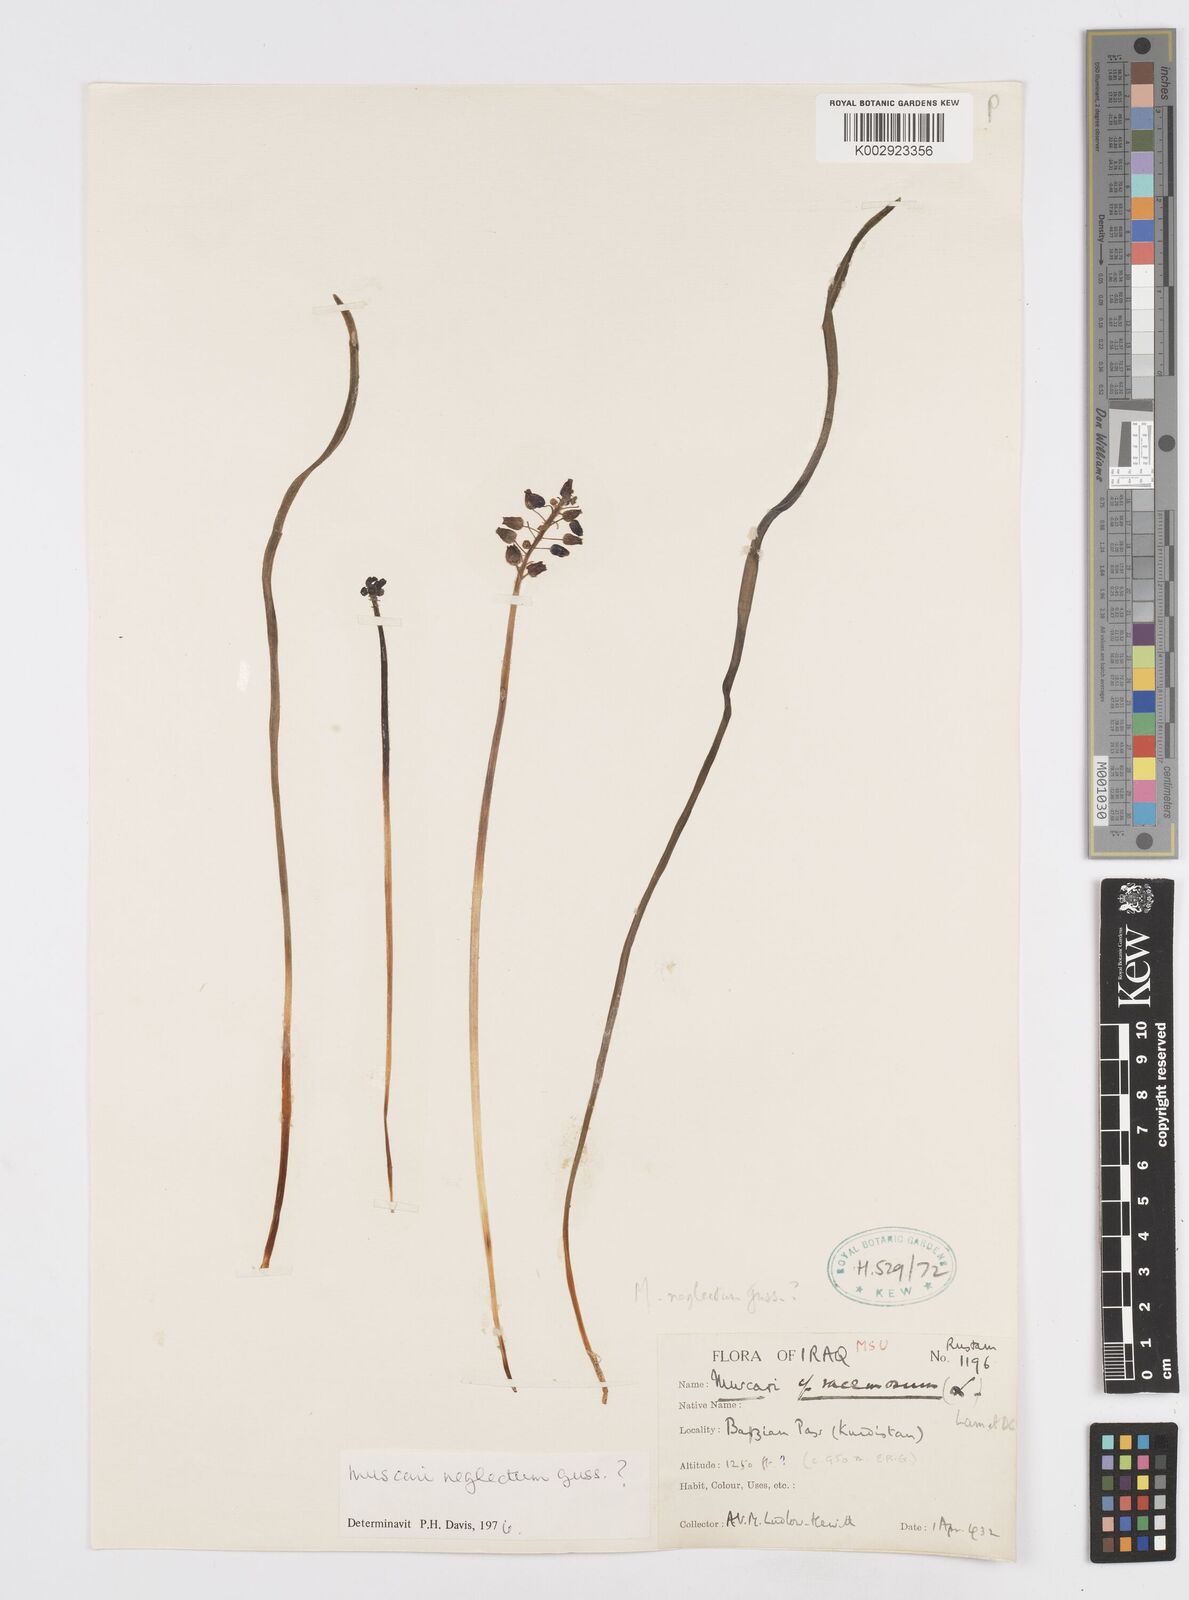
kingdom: Plantae
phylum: Tracheophyta
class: Liliopsida
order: Asparagales
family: Asparagaceae
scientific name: Asparagaceae
